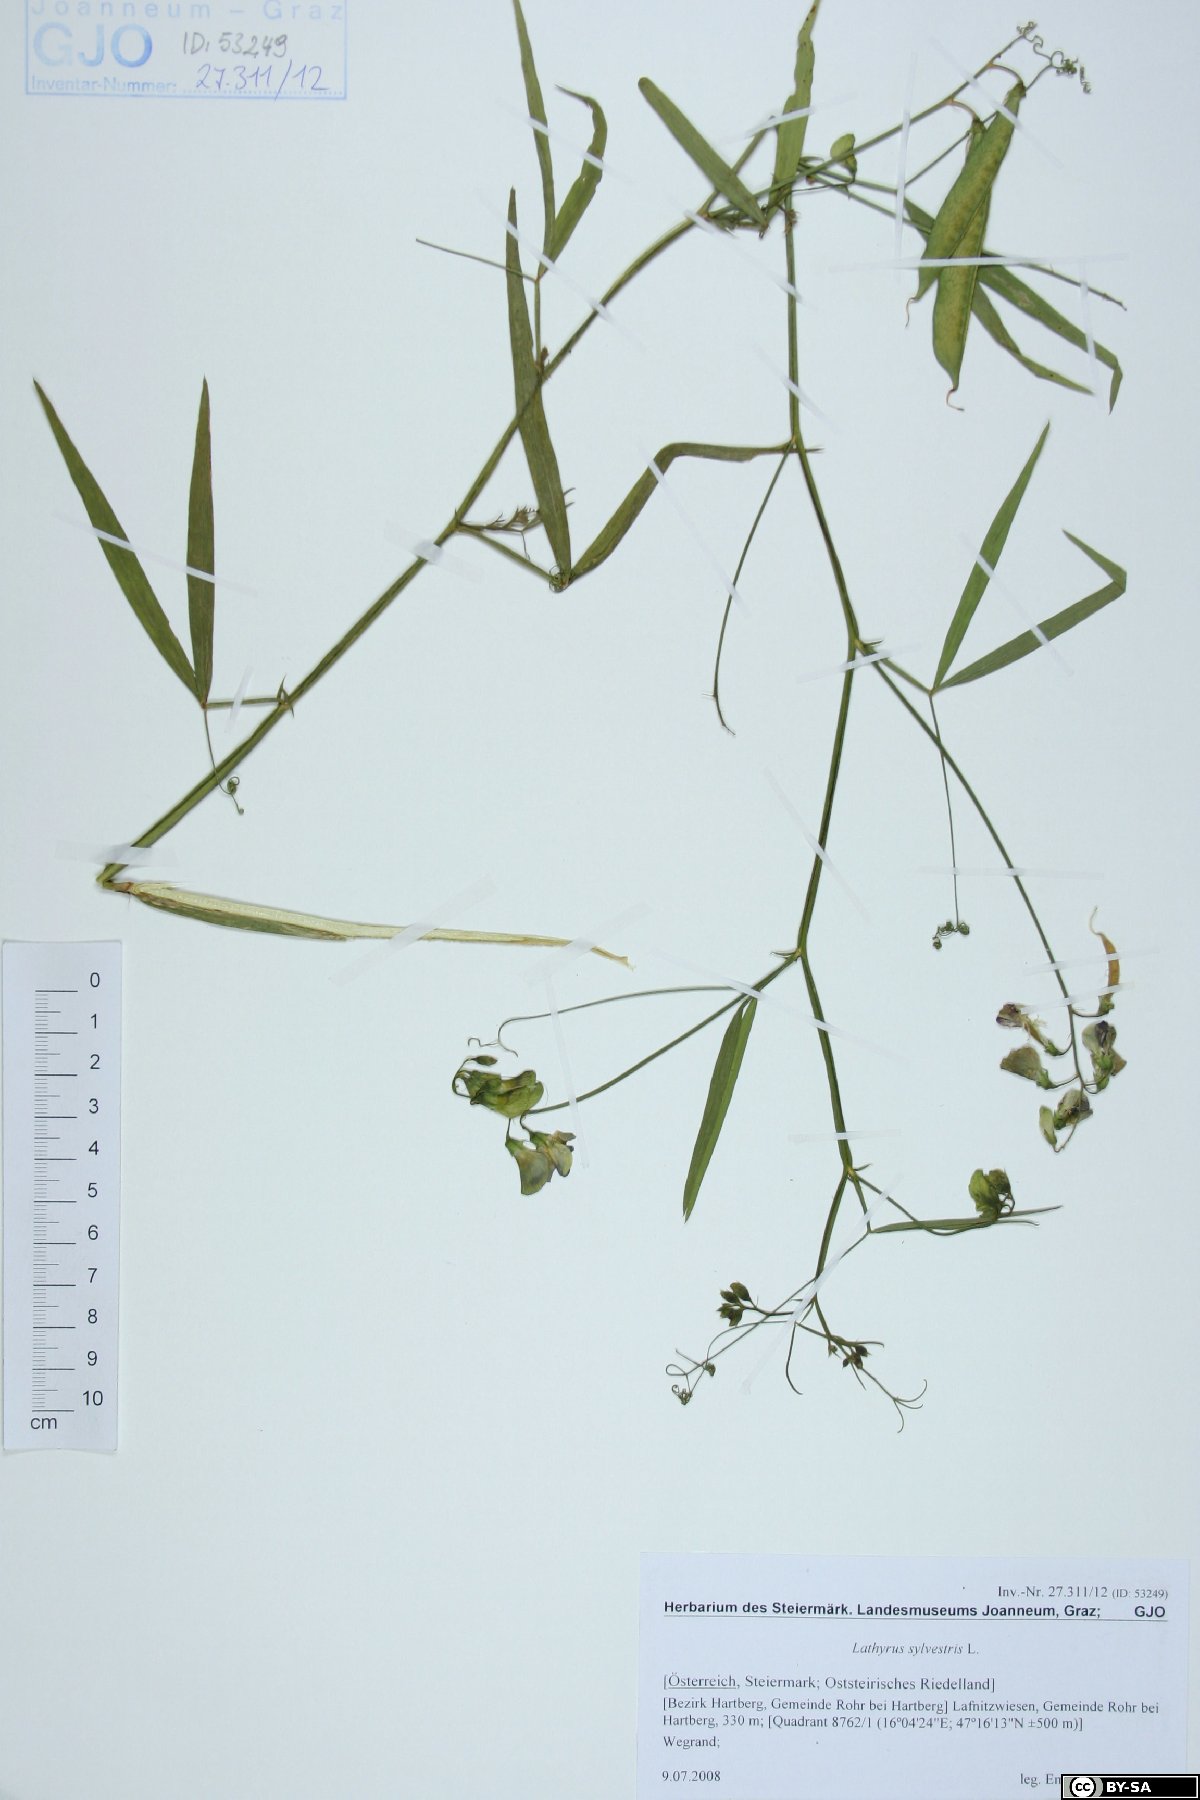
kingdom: Plantae
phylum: Tracheophyta
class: Magnoliopsida
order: Fabales
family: Fabaceae
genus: Lathyrus
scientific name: Lathyrus sylvestris
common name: Flat pea
